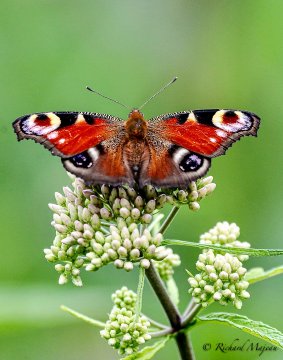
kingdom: Animalia
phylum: Arthropoda
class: Insecta
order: Lepidoptera
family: Nymphalidae
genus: Aglais
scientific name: Aglais io
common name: European Peacock
